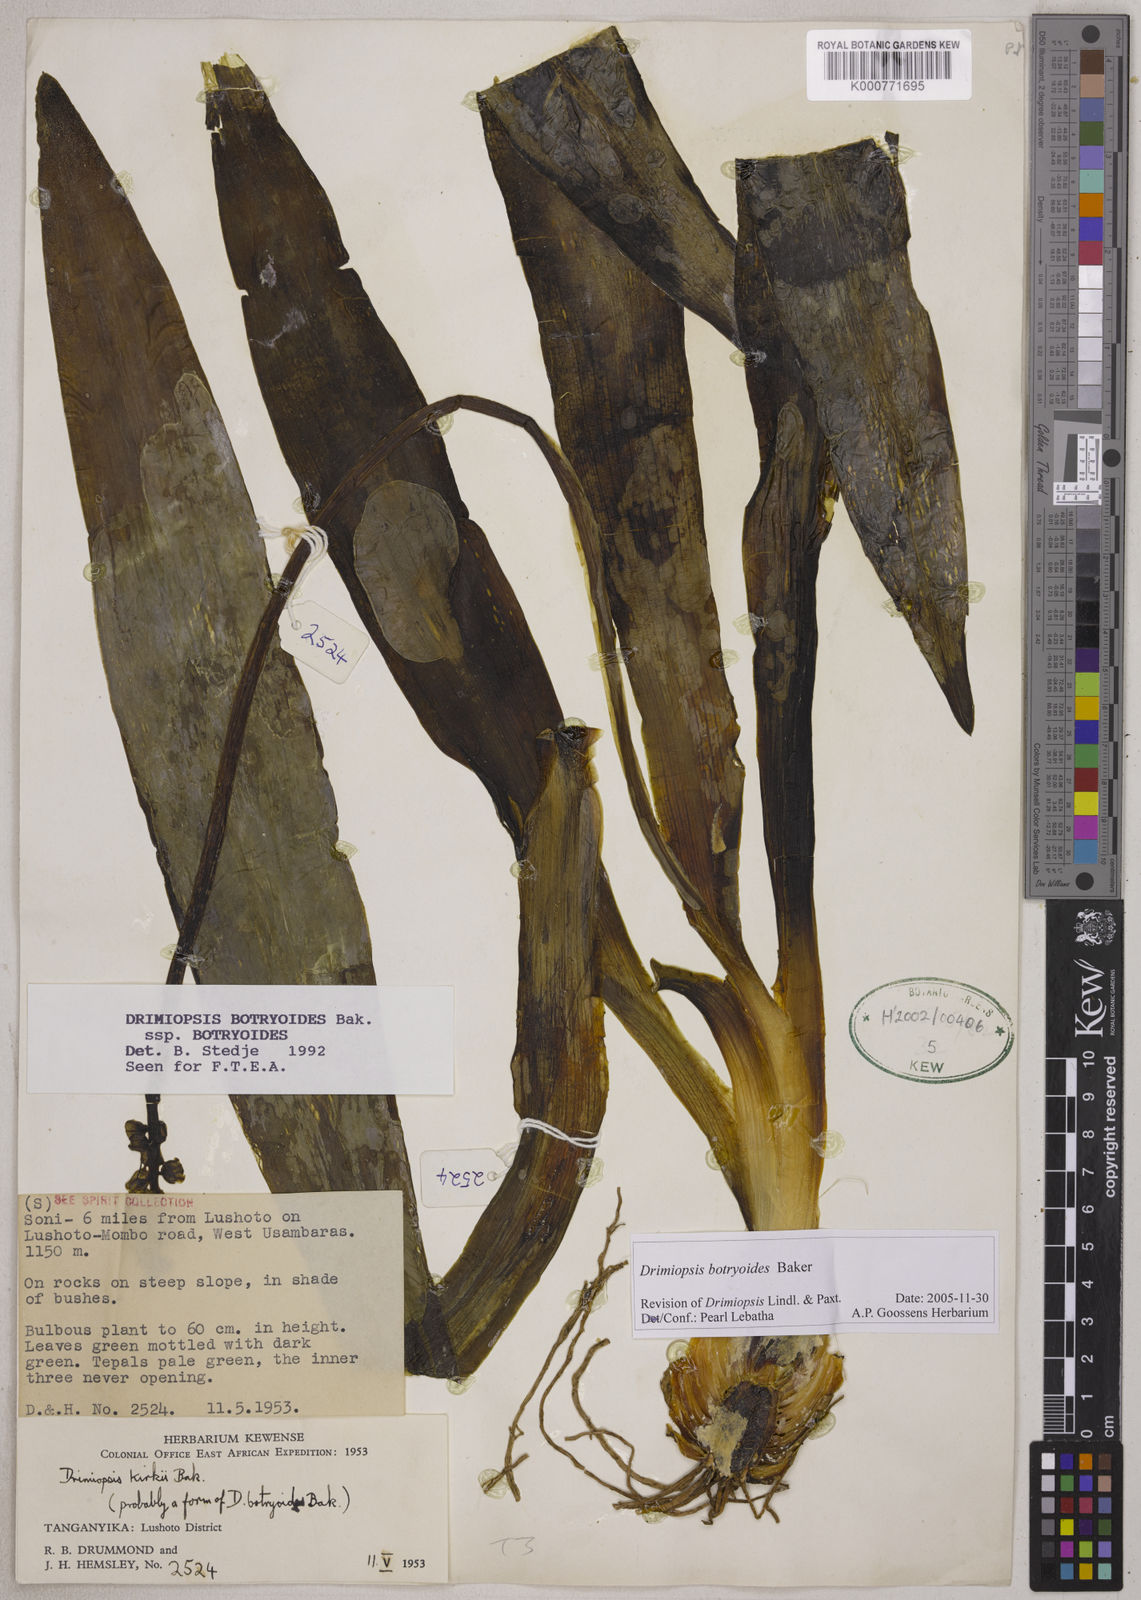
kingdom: Plantae
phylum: Tracheophyta
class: Liliopsida
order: Asparagales
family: Asparagaceae
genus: Drimiopsis
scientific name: Drimiopsis botryoides
